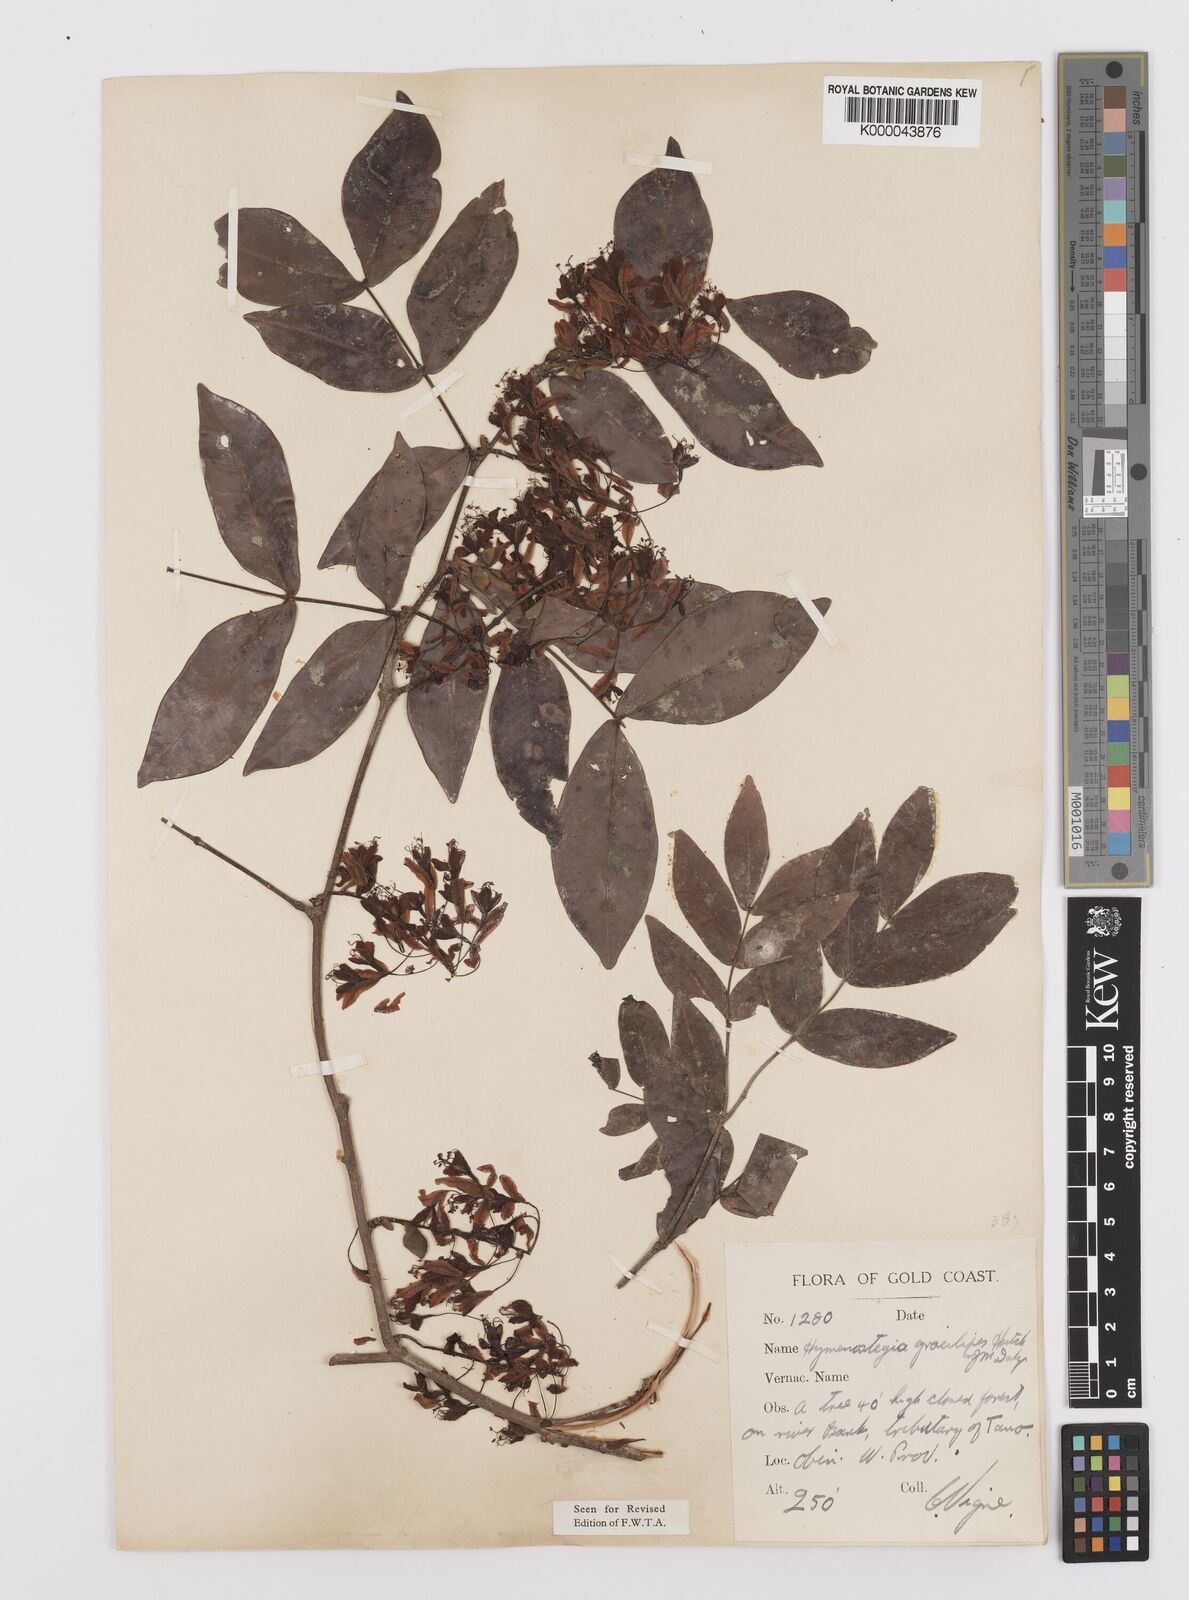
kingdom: Plantae
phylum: Tracheophyta
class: Magnoliopsida
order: Fabales
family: Fabaceae
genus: Hymenostegia
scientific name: Hymenostegia gracilipes
